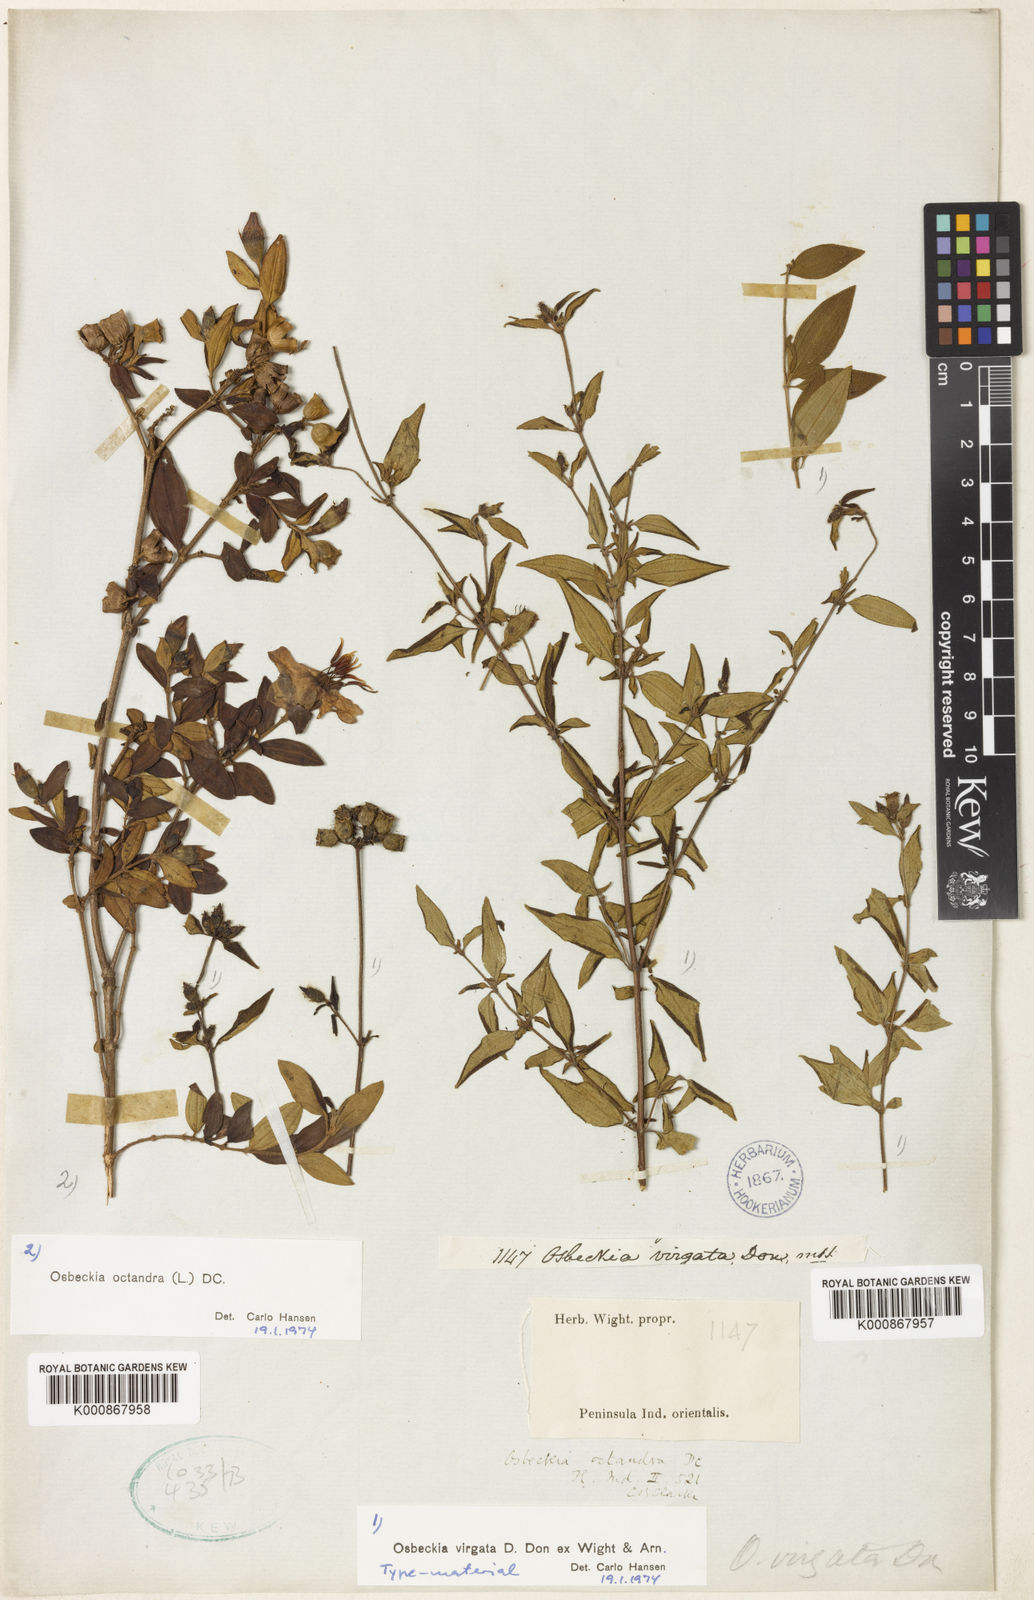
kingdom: Plantae
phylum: Tracheophyta
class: Magnoliopsida
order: Myrtales
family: Melastomataceae
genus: Osbeckia
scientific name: Osbeckia virgata
